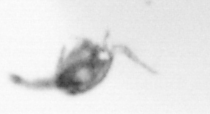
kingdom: Animalia
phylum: Arthropoda
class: Copepoda
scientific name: Copepoda
